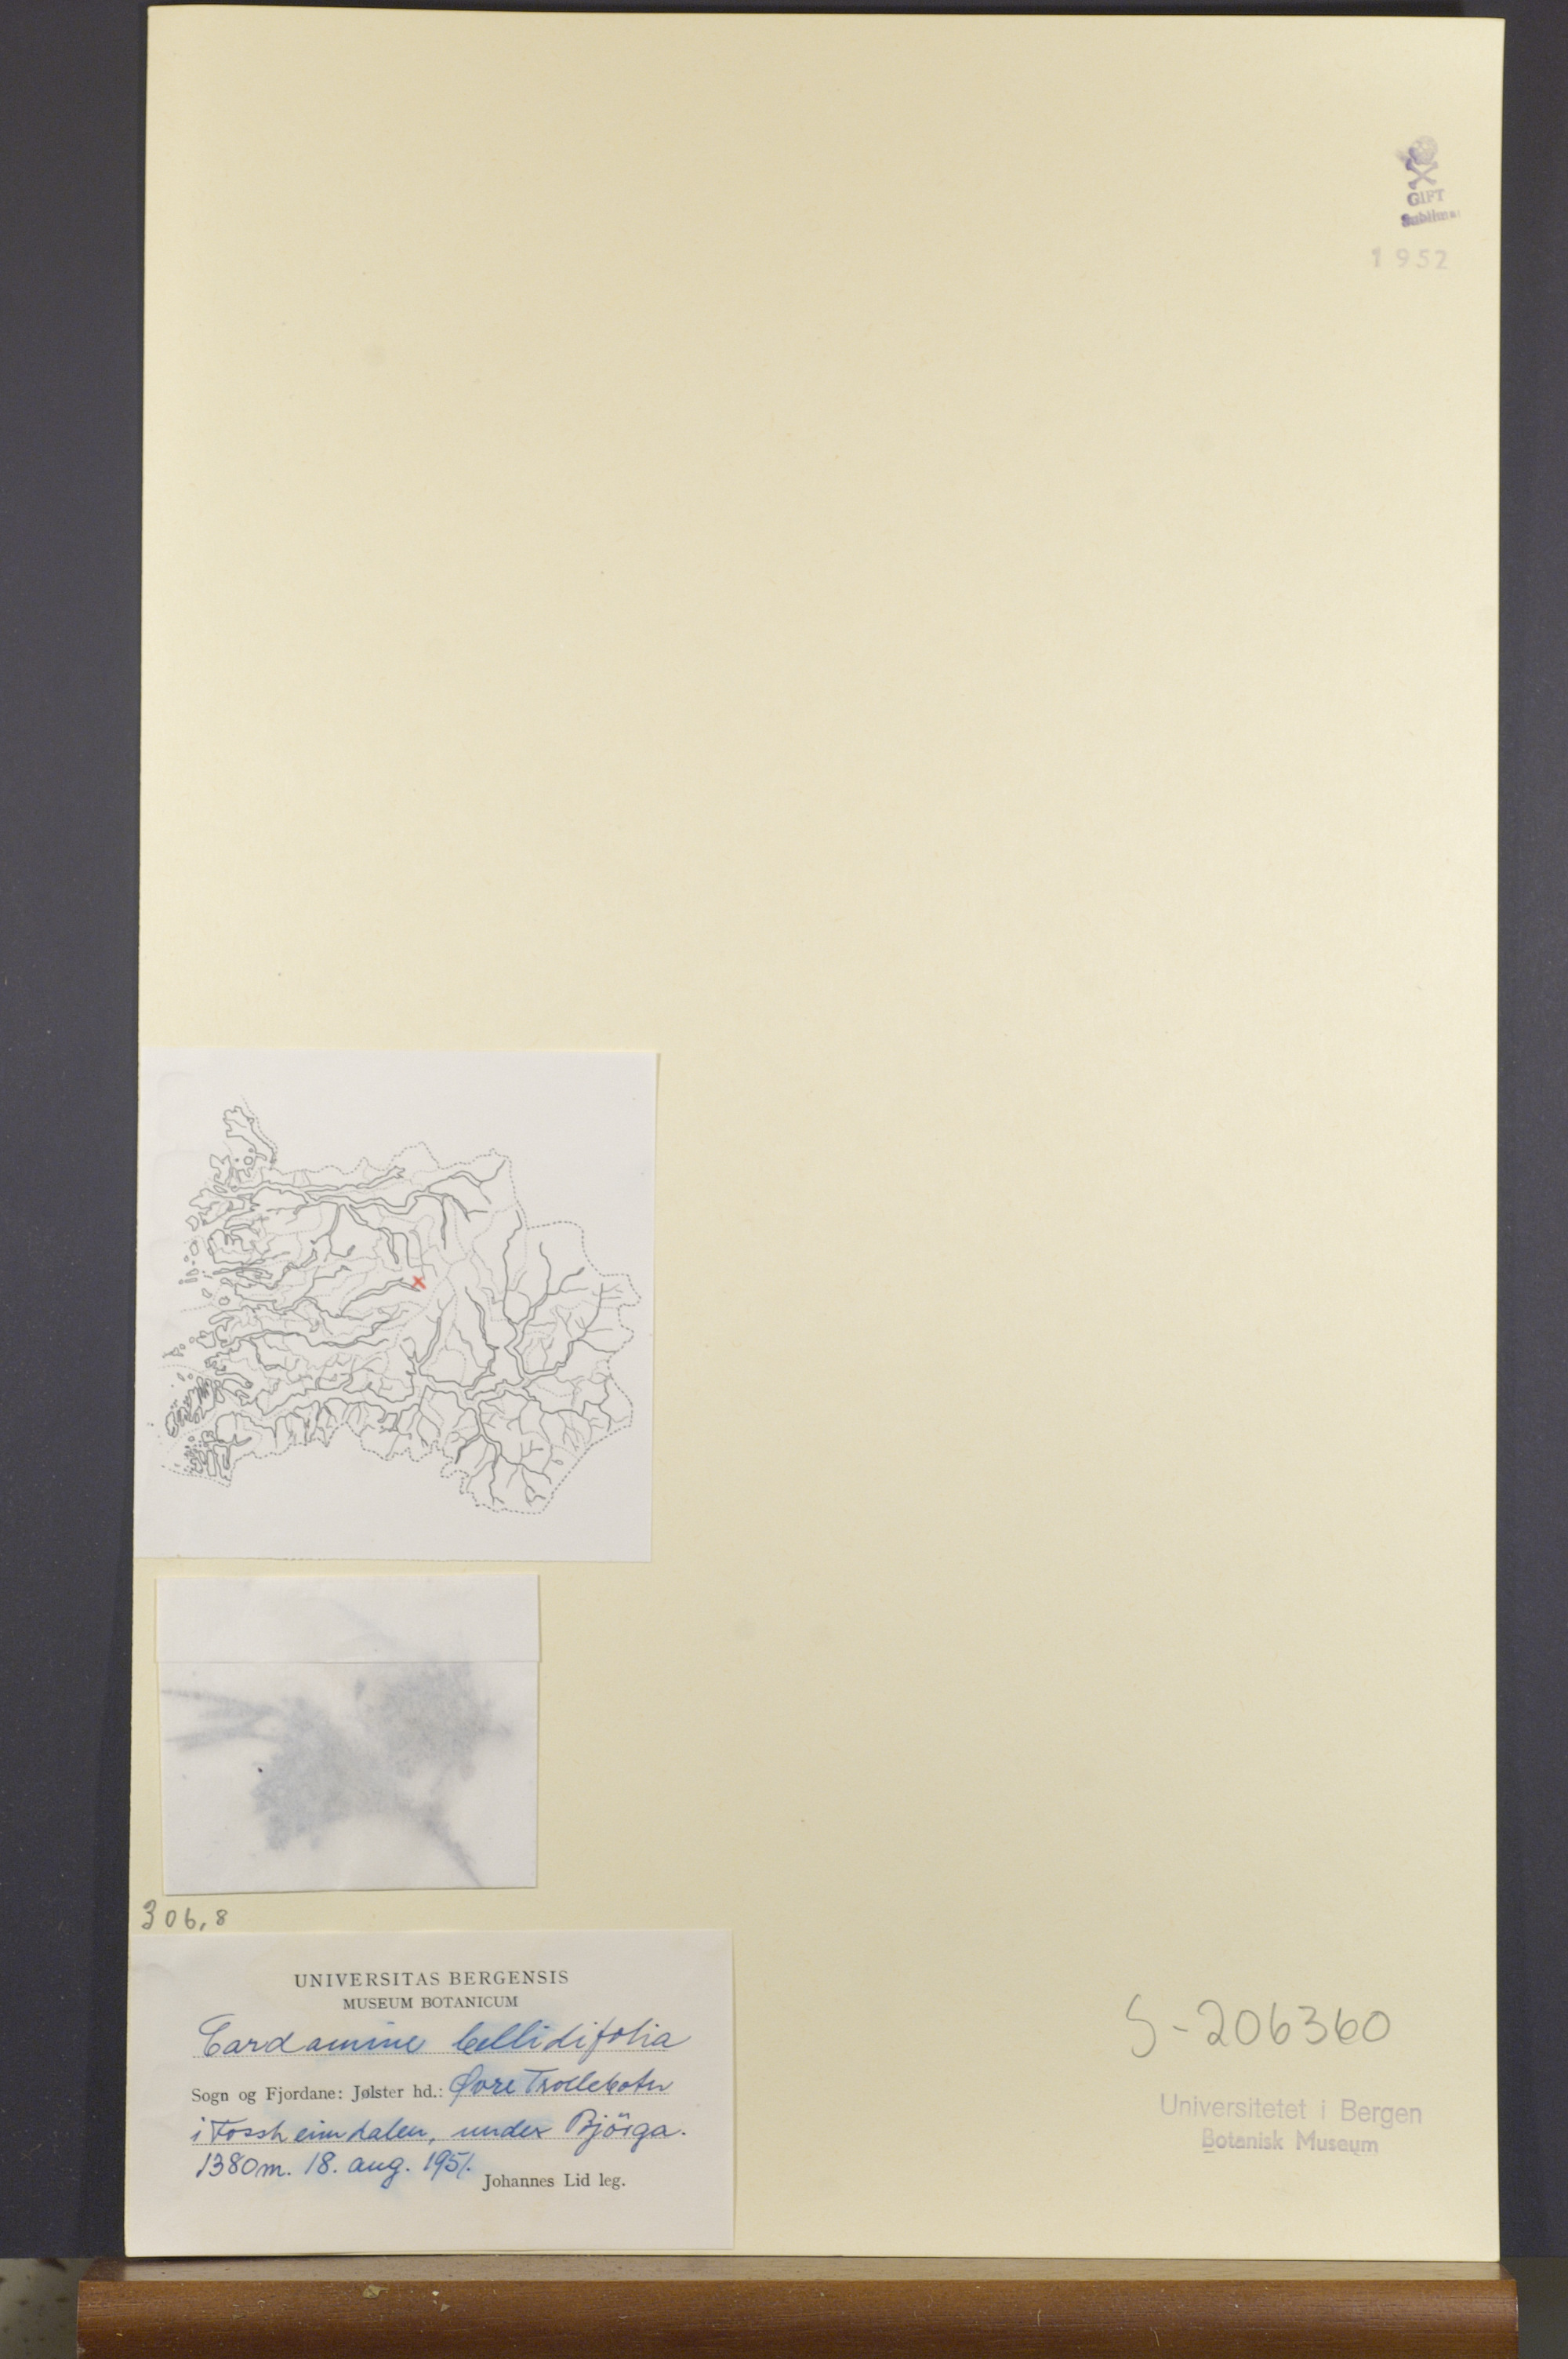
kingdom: Plantae
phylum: Tracheophyta
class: Magnoliopsida
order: Brassicales
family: Brassicaceae
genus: Cardamine
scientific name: Cardamine bellidifolia
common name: Alpine bittercress
